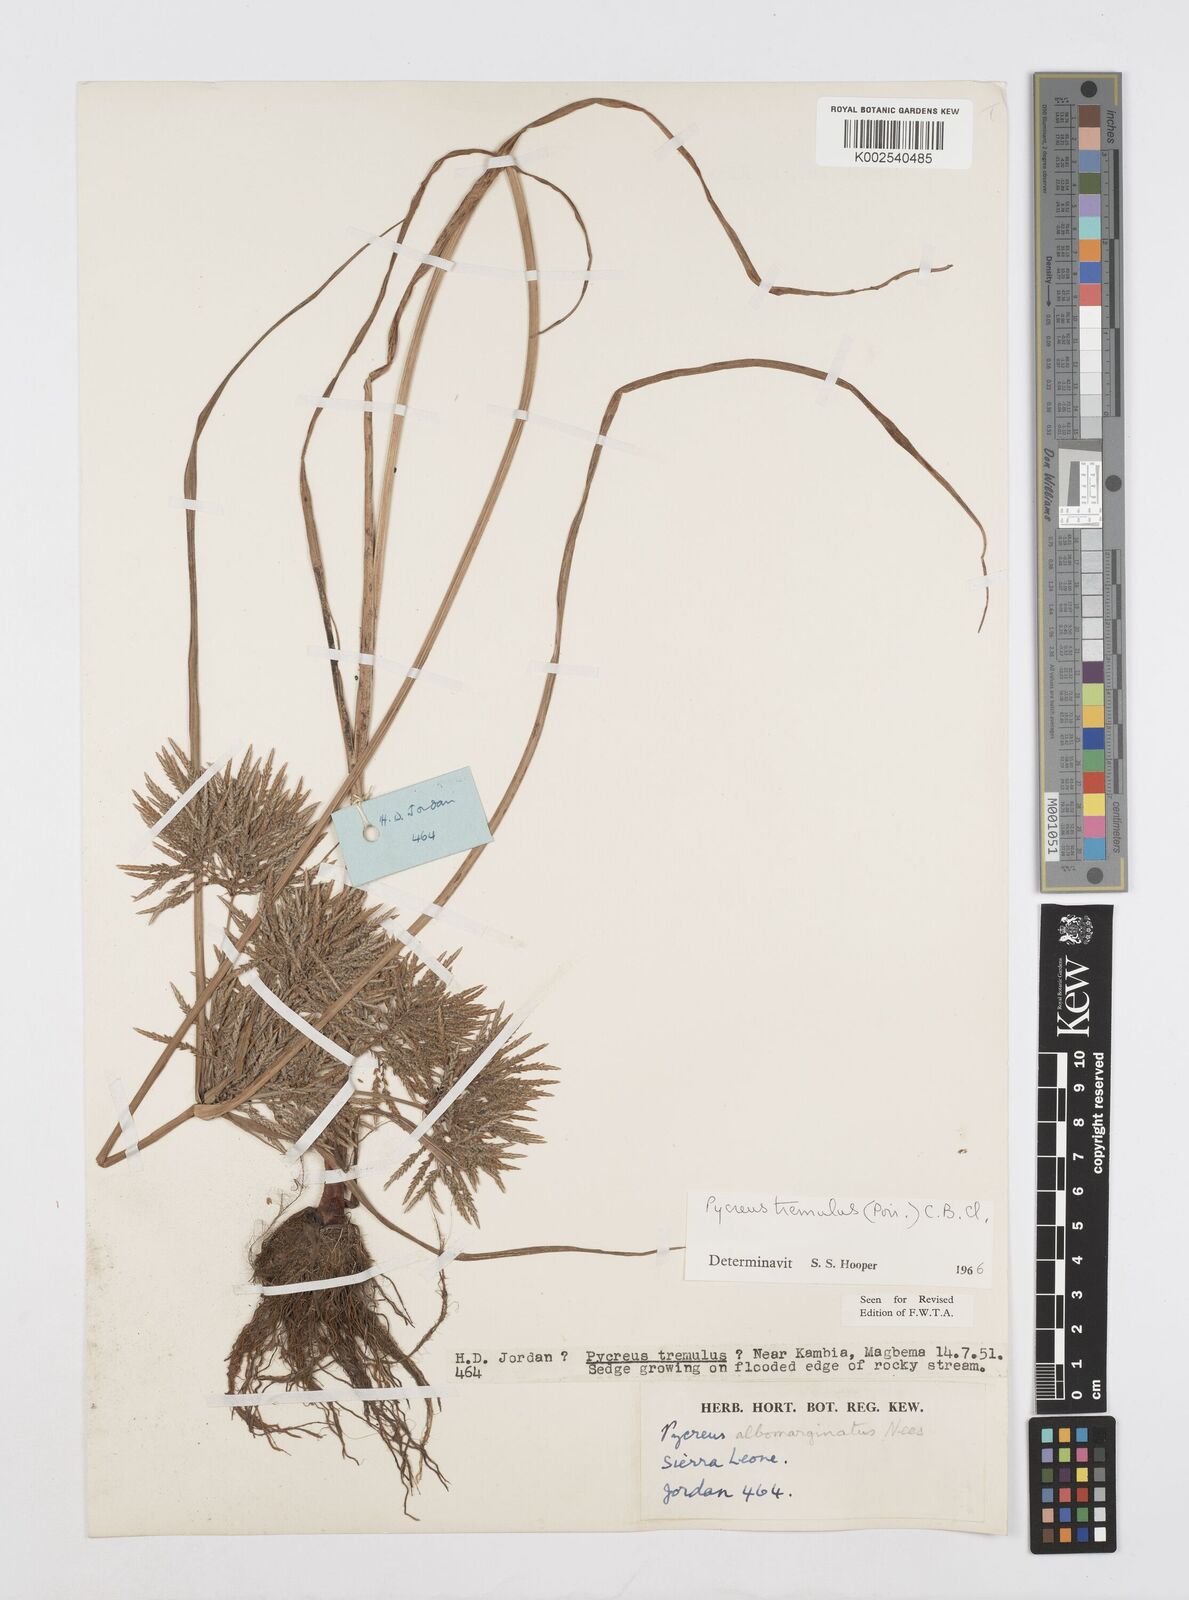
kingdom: Plantae
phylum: Tracheophyta
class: Liliopsida
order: Poales
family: Cyperaceae
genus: Cyperus
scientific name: Cyperus macrostachyos
